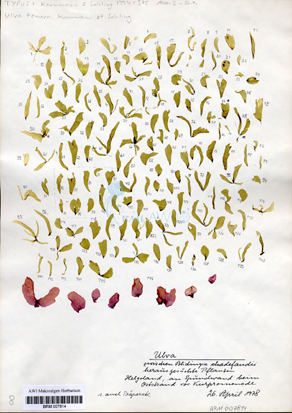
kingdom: Plantae
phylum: Chlorophyta
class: Ulvophyceae
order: Ulvales
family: Ulvaceae
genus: Ulva
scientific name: Ulva tenera
